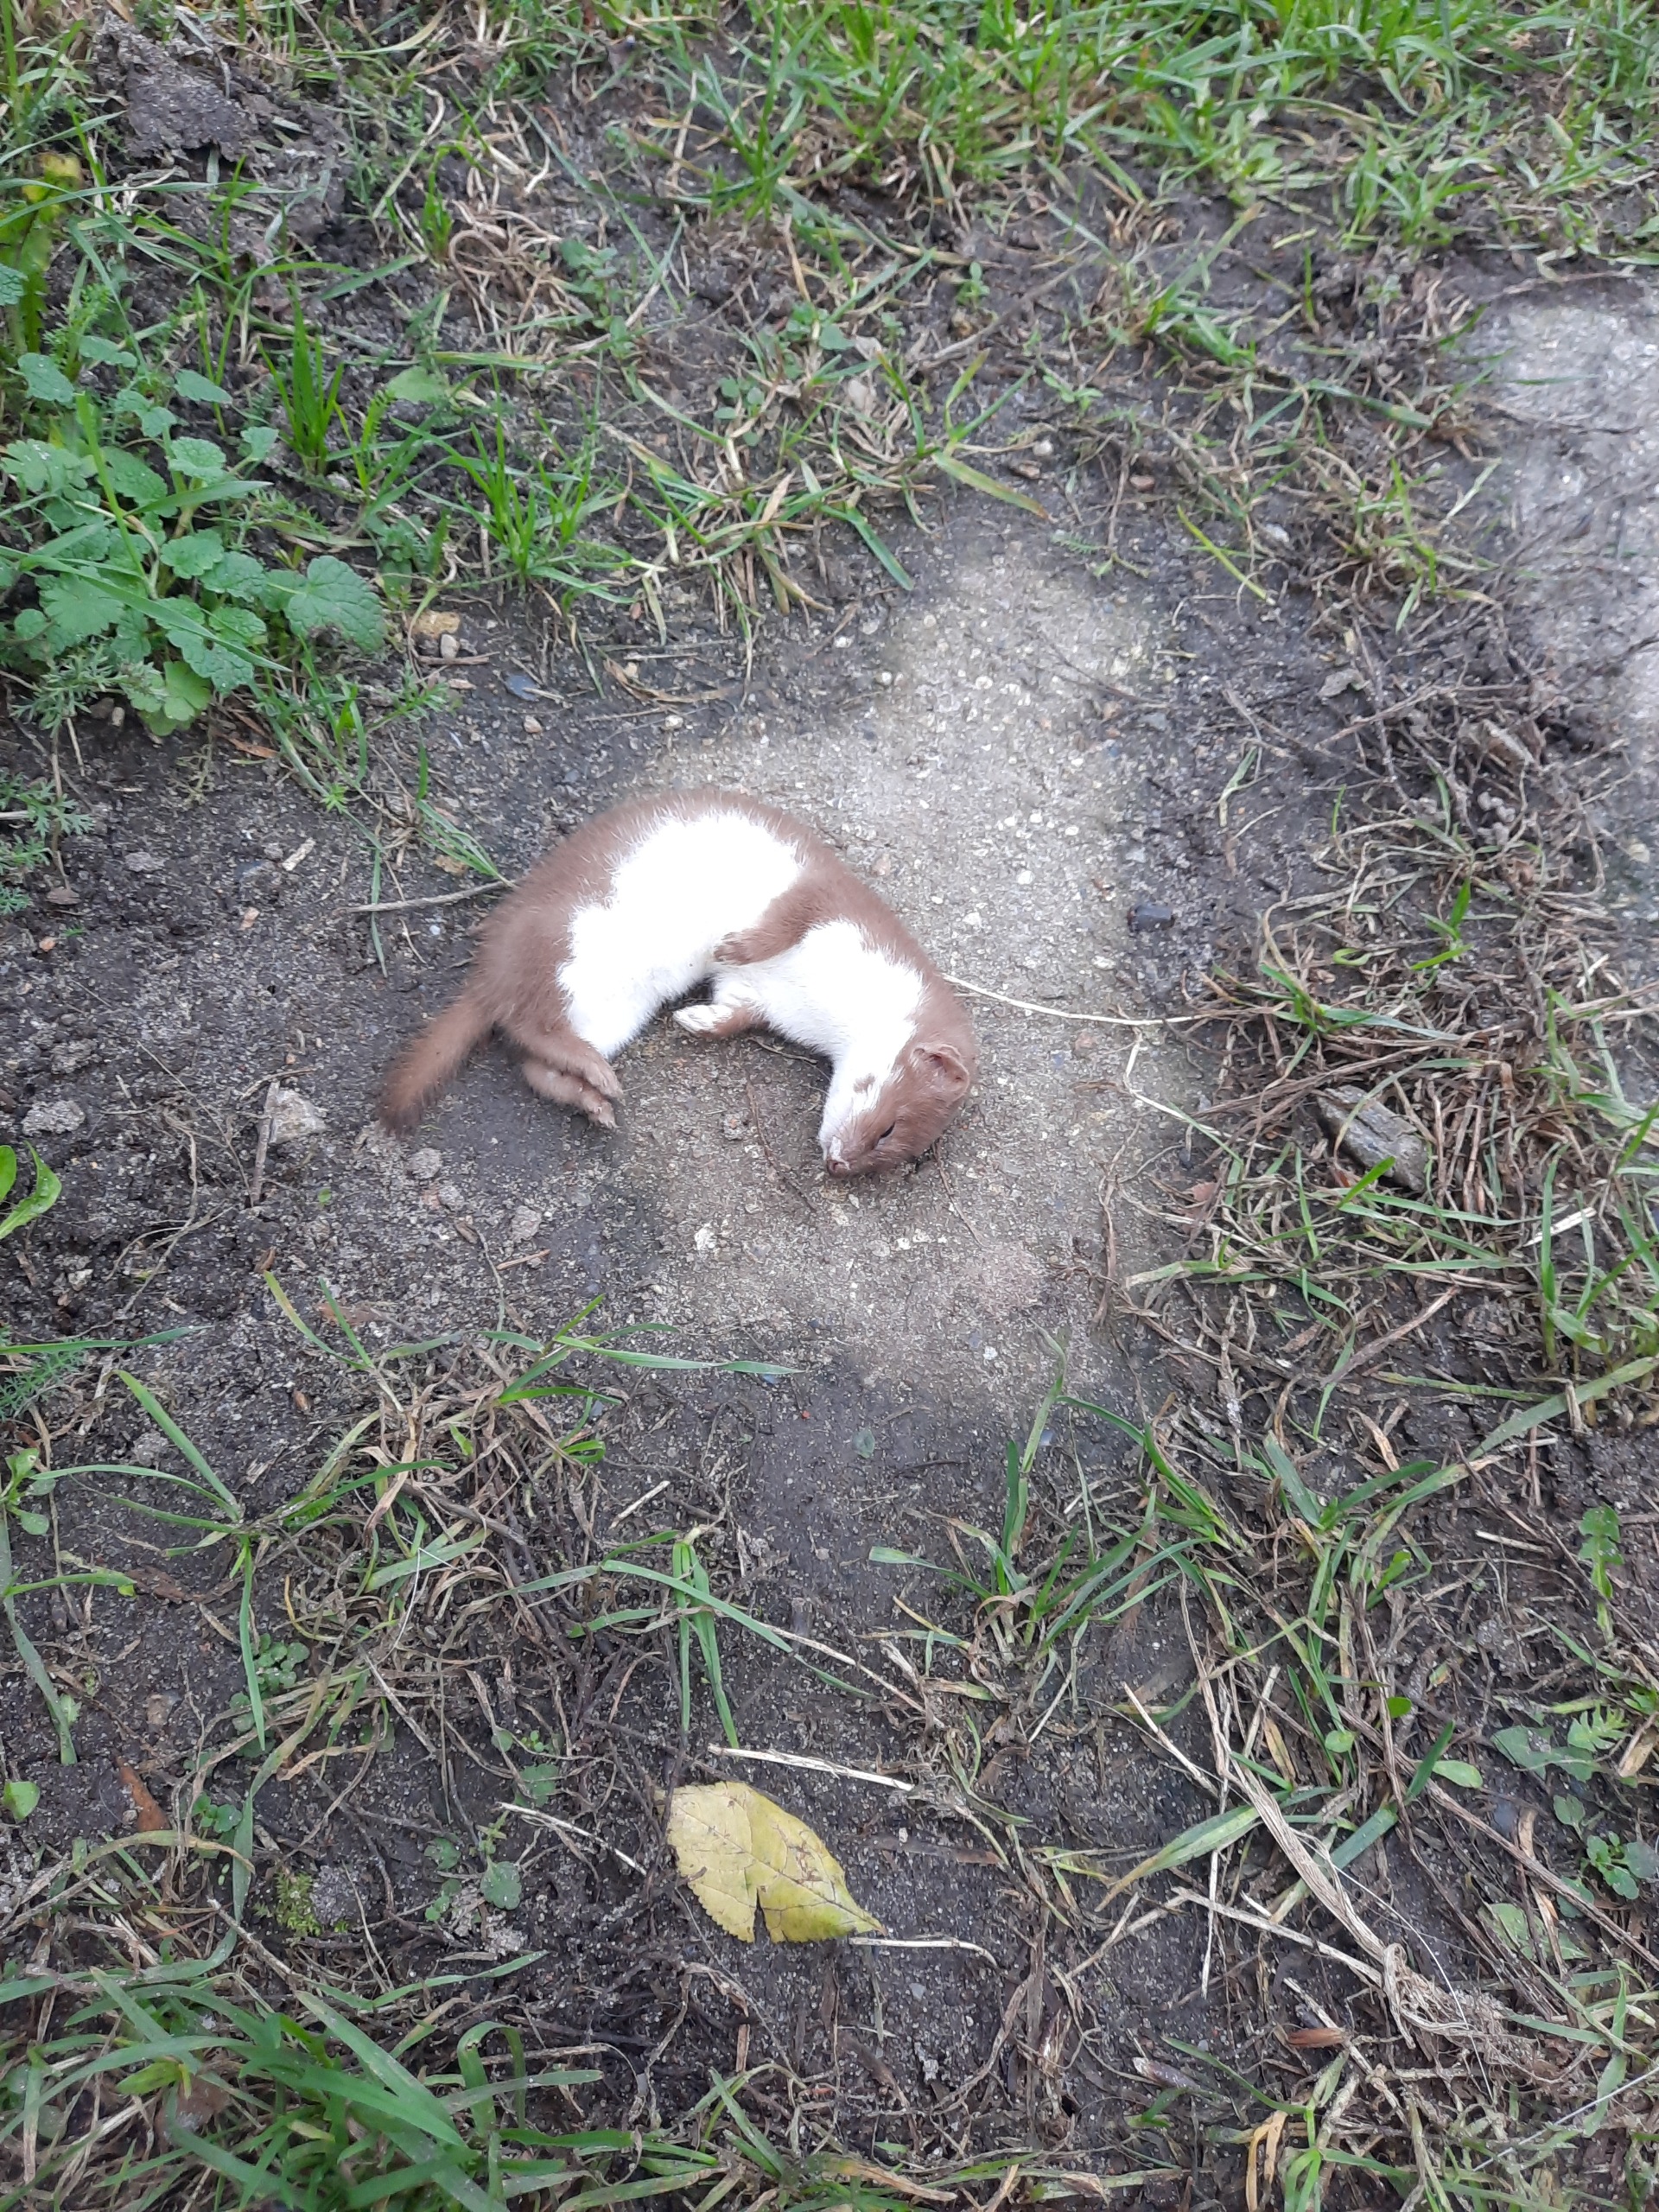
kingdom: Animalia
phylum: Chordata
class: Mammalia
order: Carnivora
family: Mustelidae
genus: Mustela
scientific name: Mustela nivalis
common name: Brud
